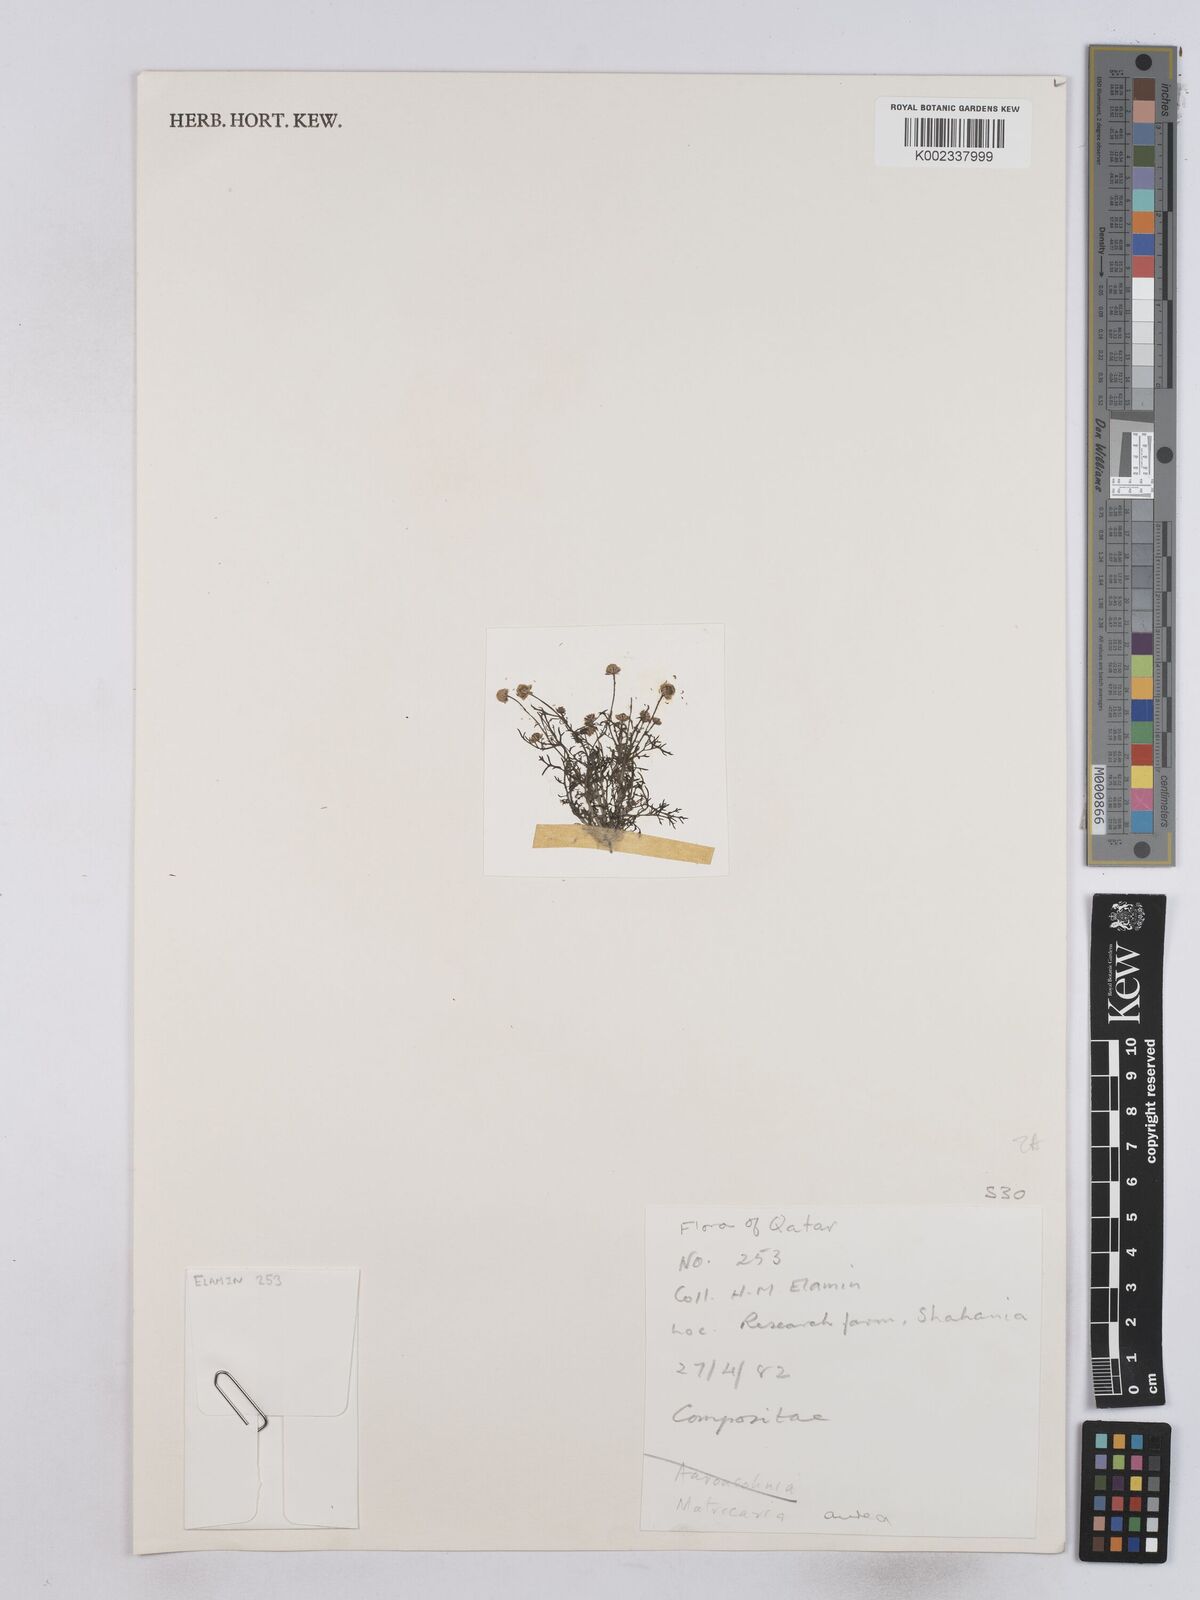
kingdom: Plantae
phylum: Tracheophyta
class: Magnoliopsida
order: Asterales
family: Asteraceae
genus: Matricaria
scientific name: Matricaria aurea
